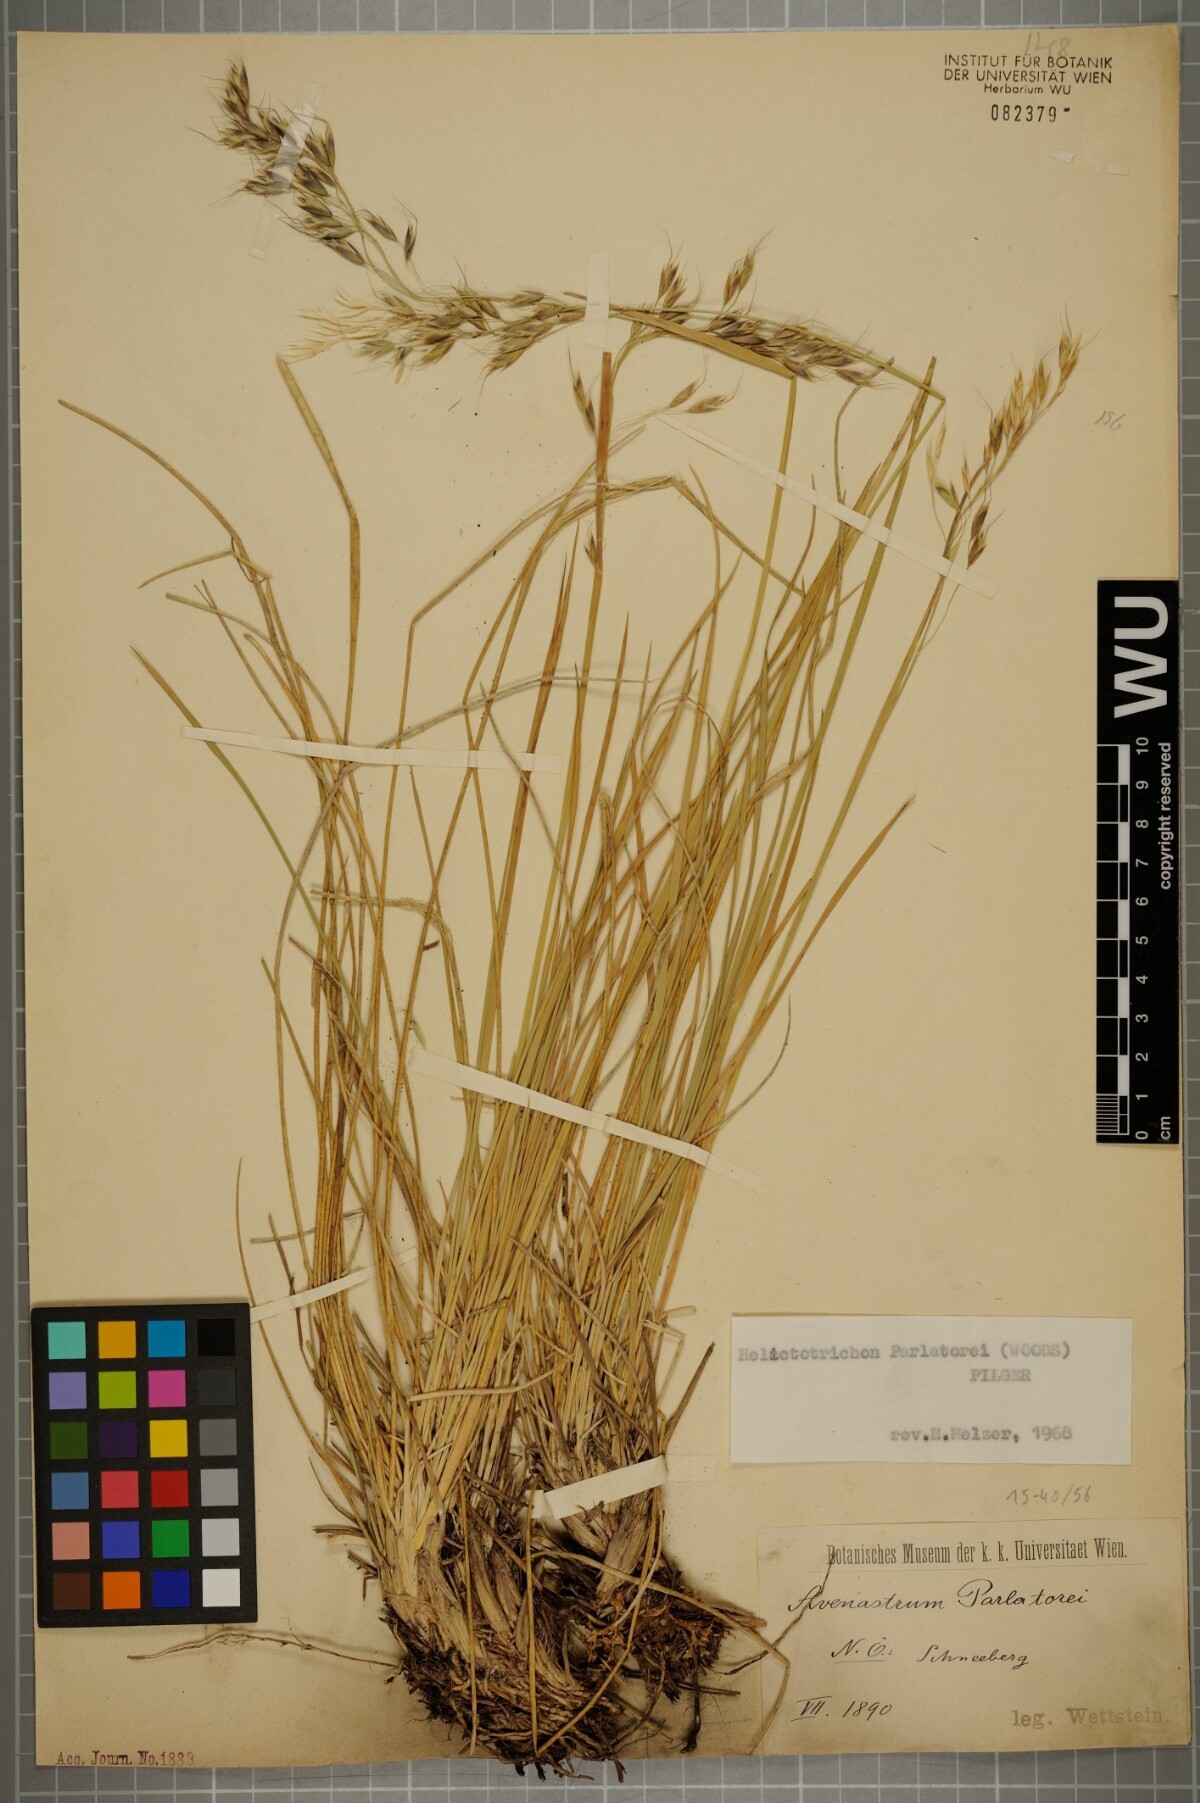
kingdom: Plantae
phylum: Tracheophyta
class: Liliopsida
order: Poales
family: Poaceae
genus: Helictotrichon
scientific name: Helictotrichon parlatorei
